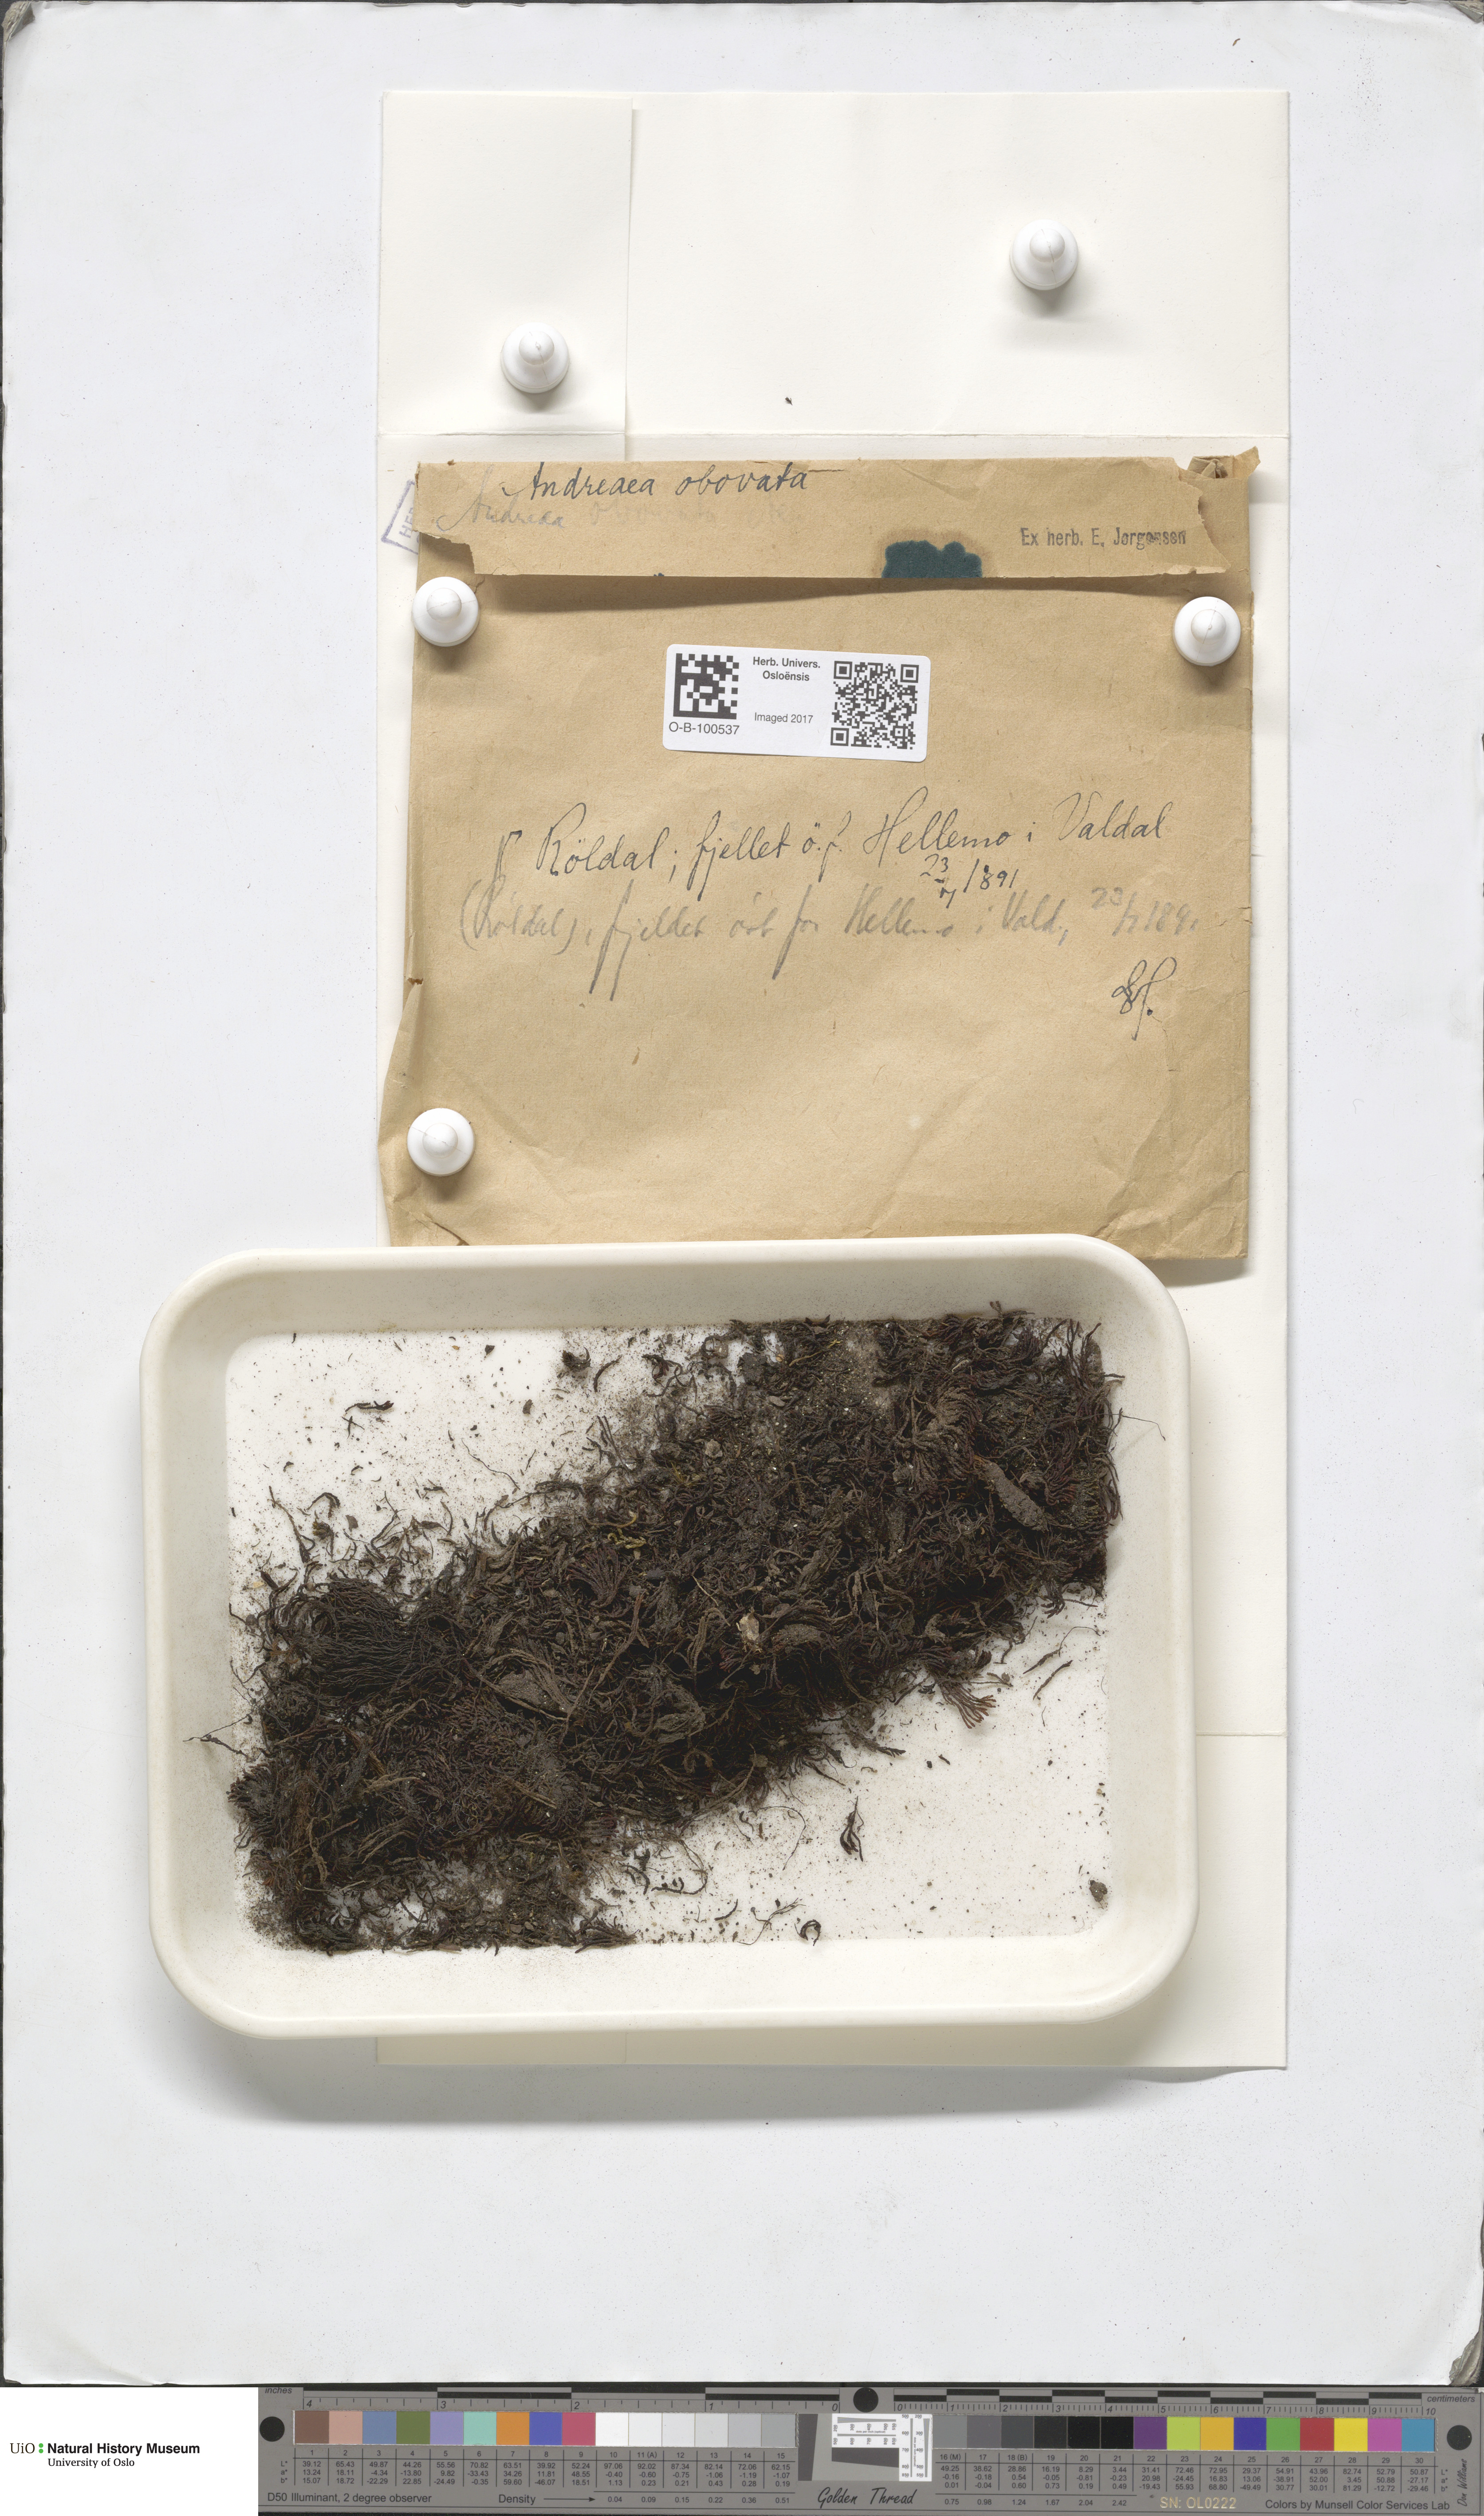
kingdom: Plantae
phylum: Bryophyta
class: Andreaeopsida
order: Andreaeales
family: Andreaeaceae
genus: Andreaea
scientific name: Andreaea alpina
